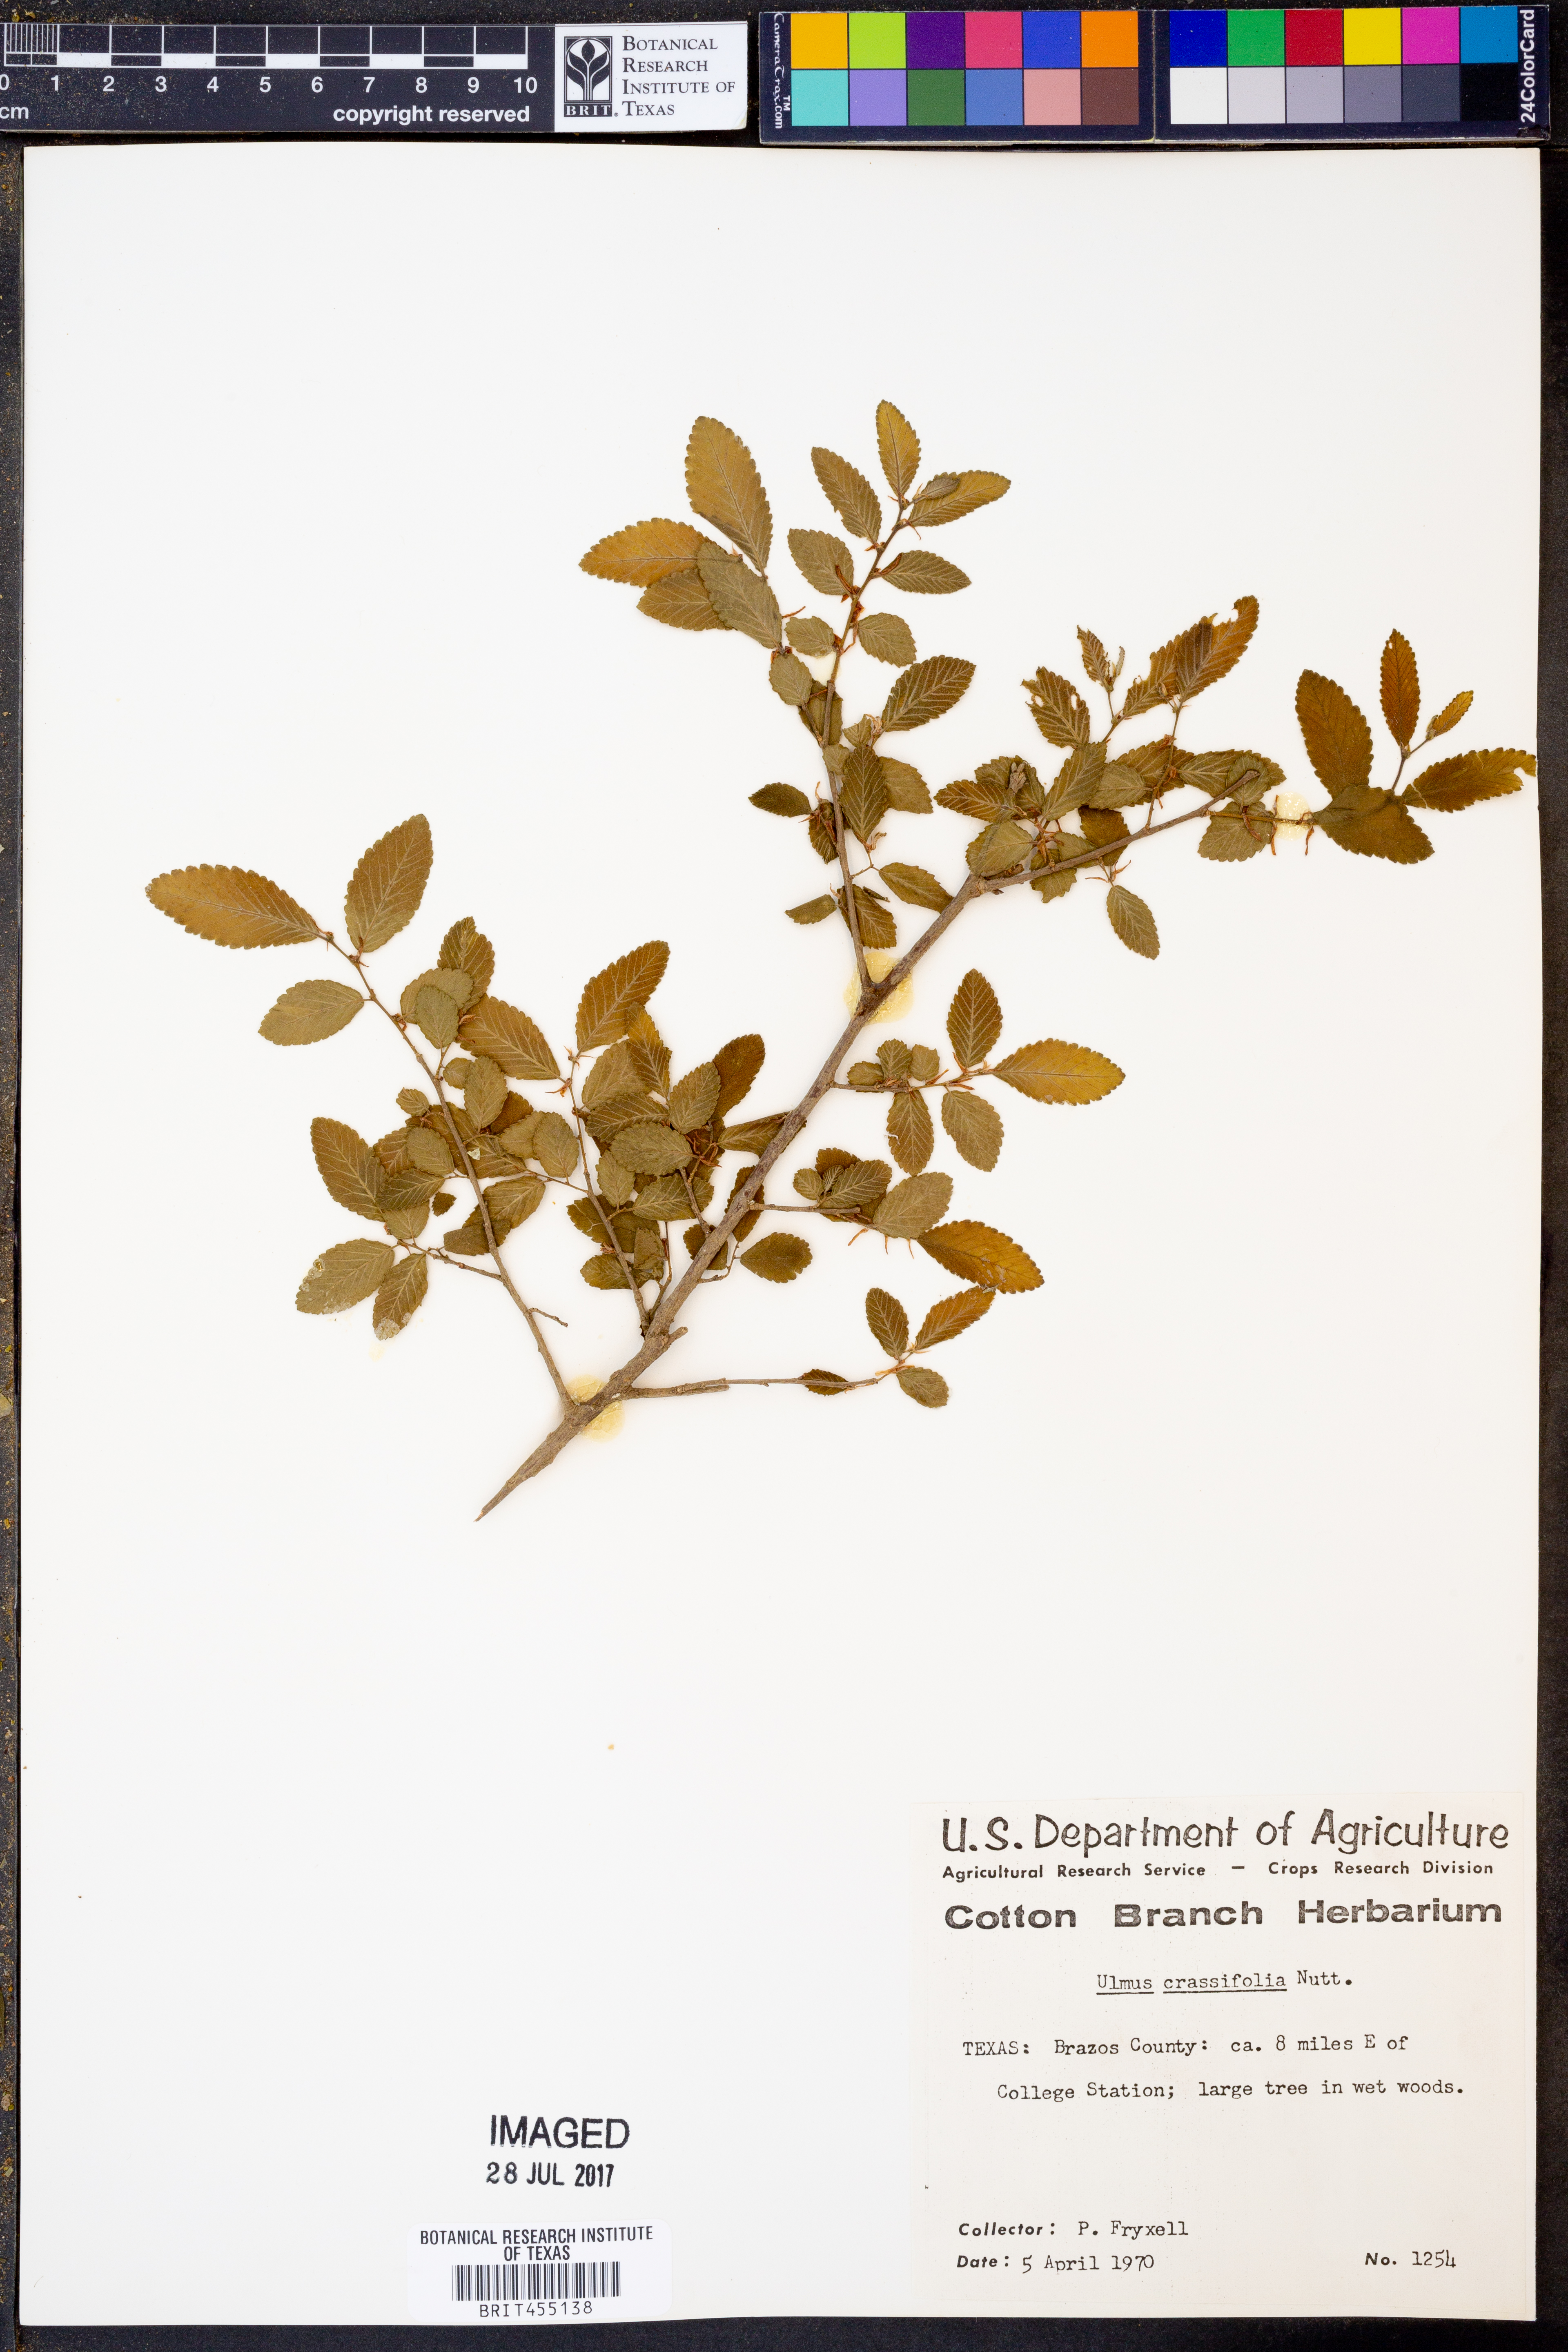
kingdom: Plantae
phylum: Tracheophyta
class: Magnoliopsida
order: Rosales
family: Ulmaceae
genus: Ulmus
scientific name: Ulmus crassifolia
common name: Basket elm
